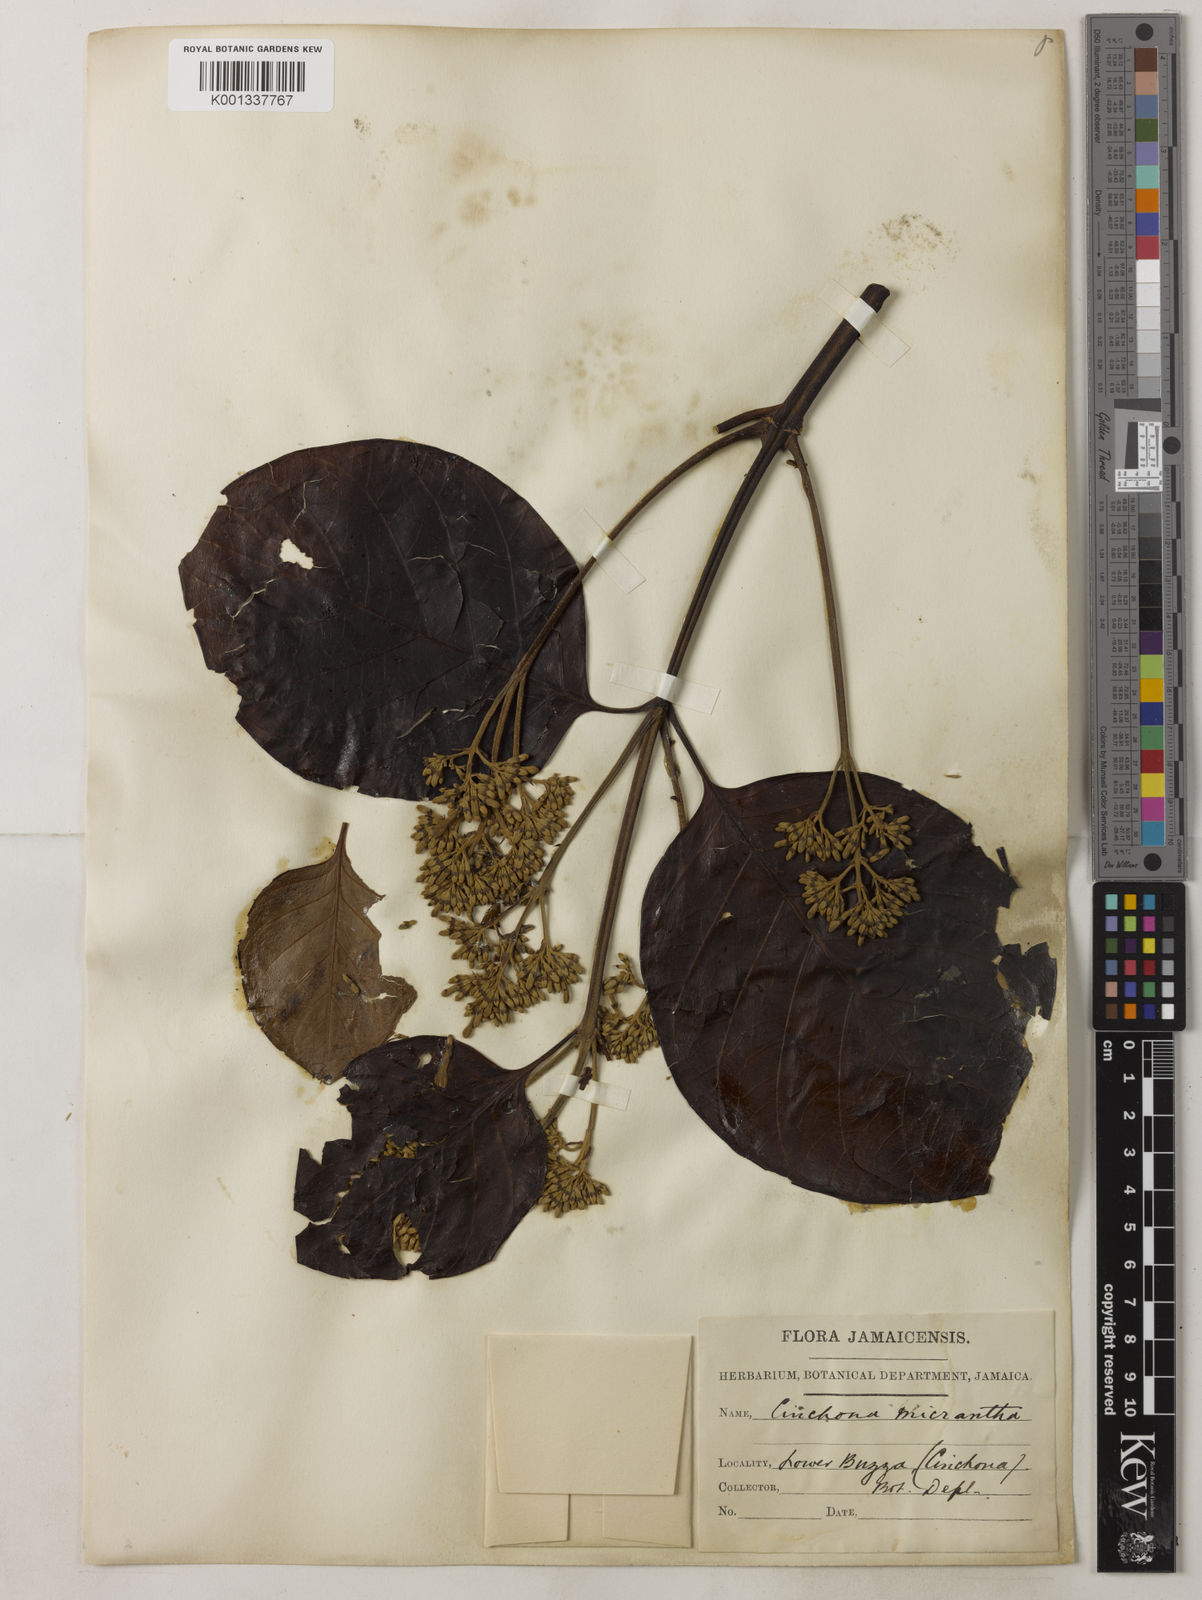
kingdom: Plantae
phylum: Tracheophyta
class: Magnoliopsida
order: Gentianales
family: Rubiaceae
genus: Cinchona
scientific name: Cinchona micrantha
